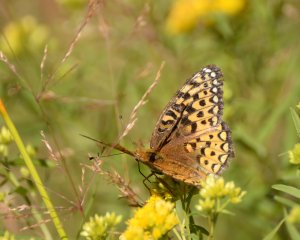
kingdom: Animalia
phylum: Arthropoda
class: Insecta
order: Lepidoptera
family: Nymphalidae
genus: Speyeria
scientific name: Speyeria atlantis
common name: Atlantis Fritillary
